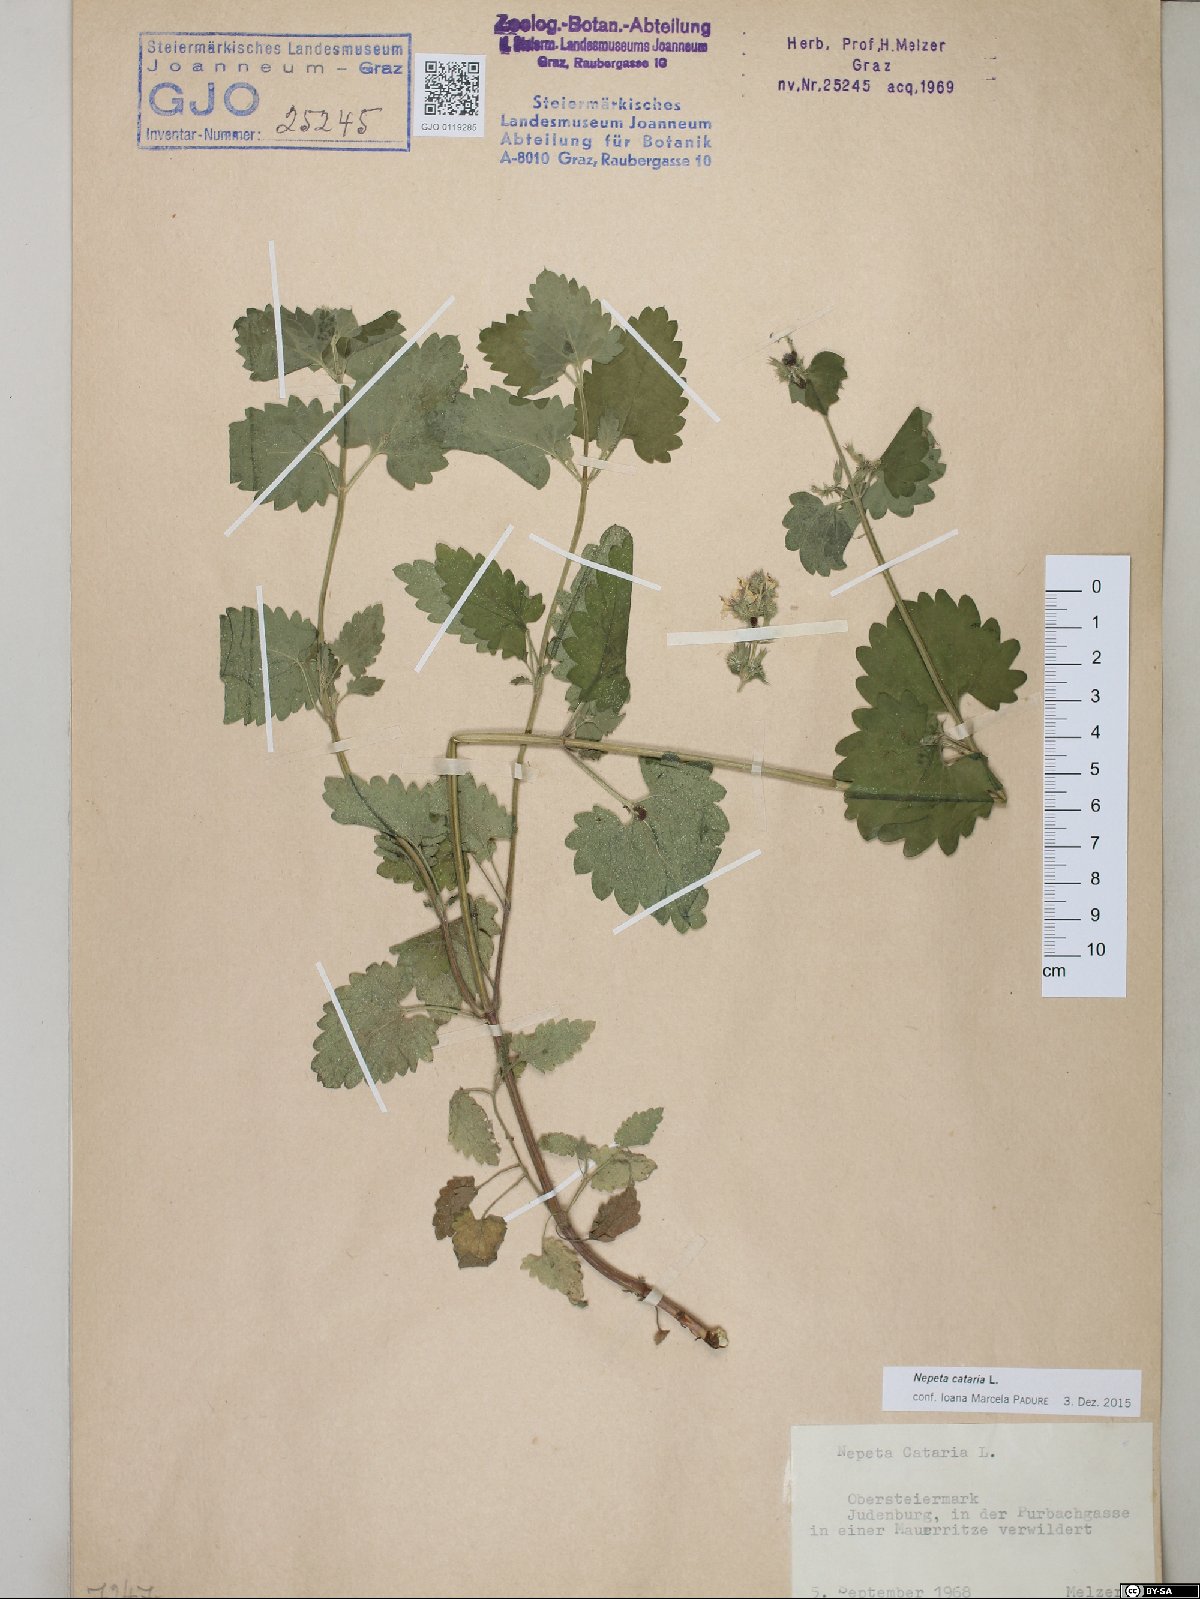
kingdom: Plantae
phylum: Tracheophyta
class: Magnoliopsida
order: Lamiales
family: Lamiaceae
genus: Nepeta
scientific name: Nepeta cataria
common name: Catnip
